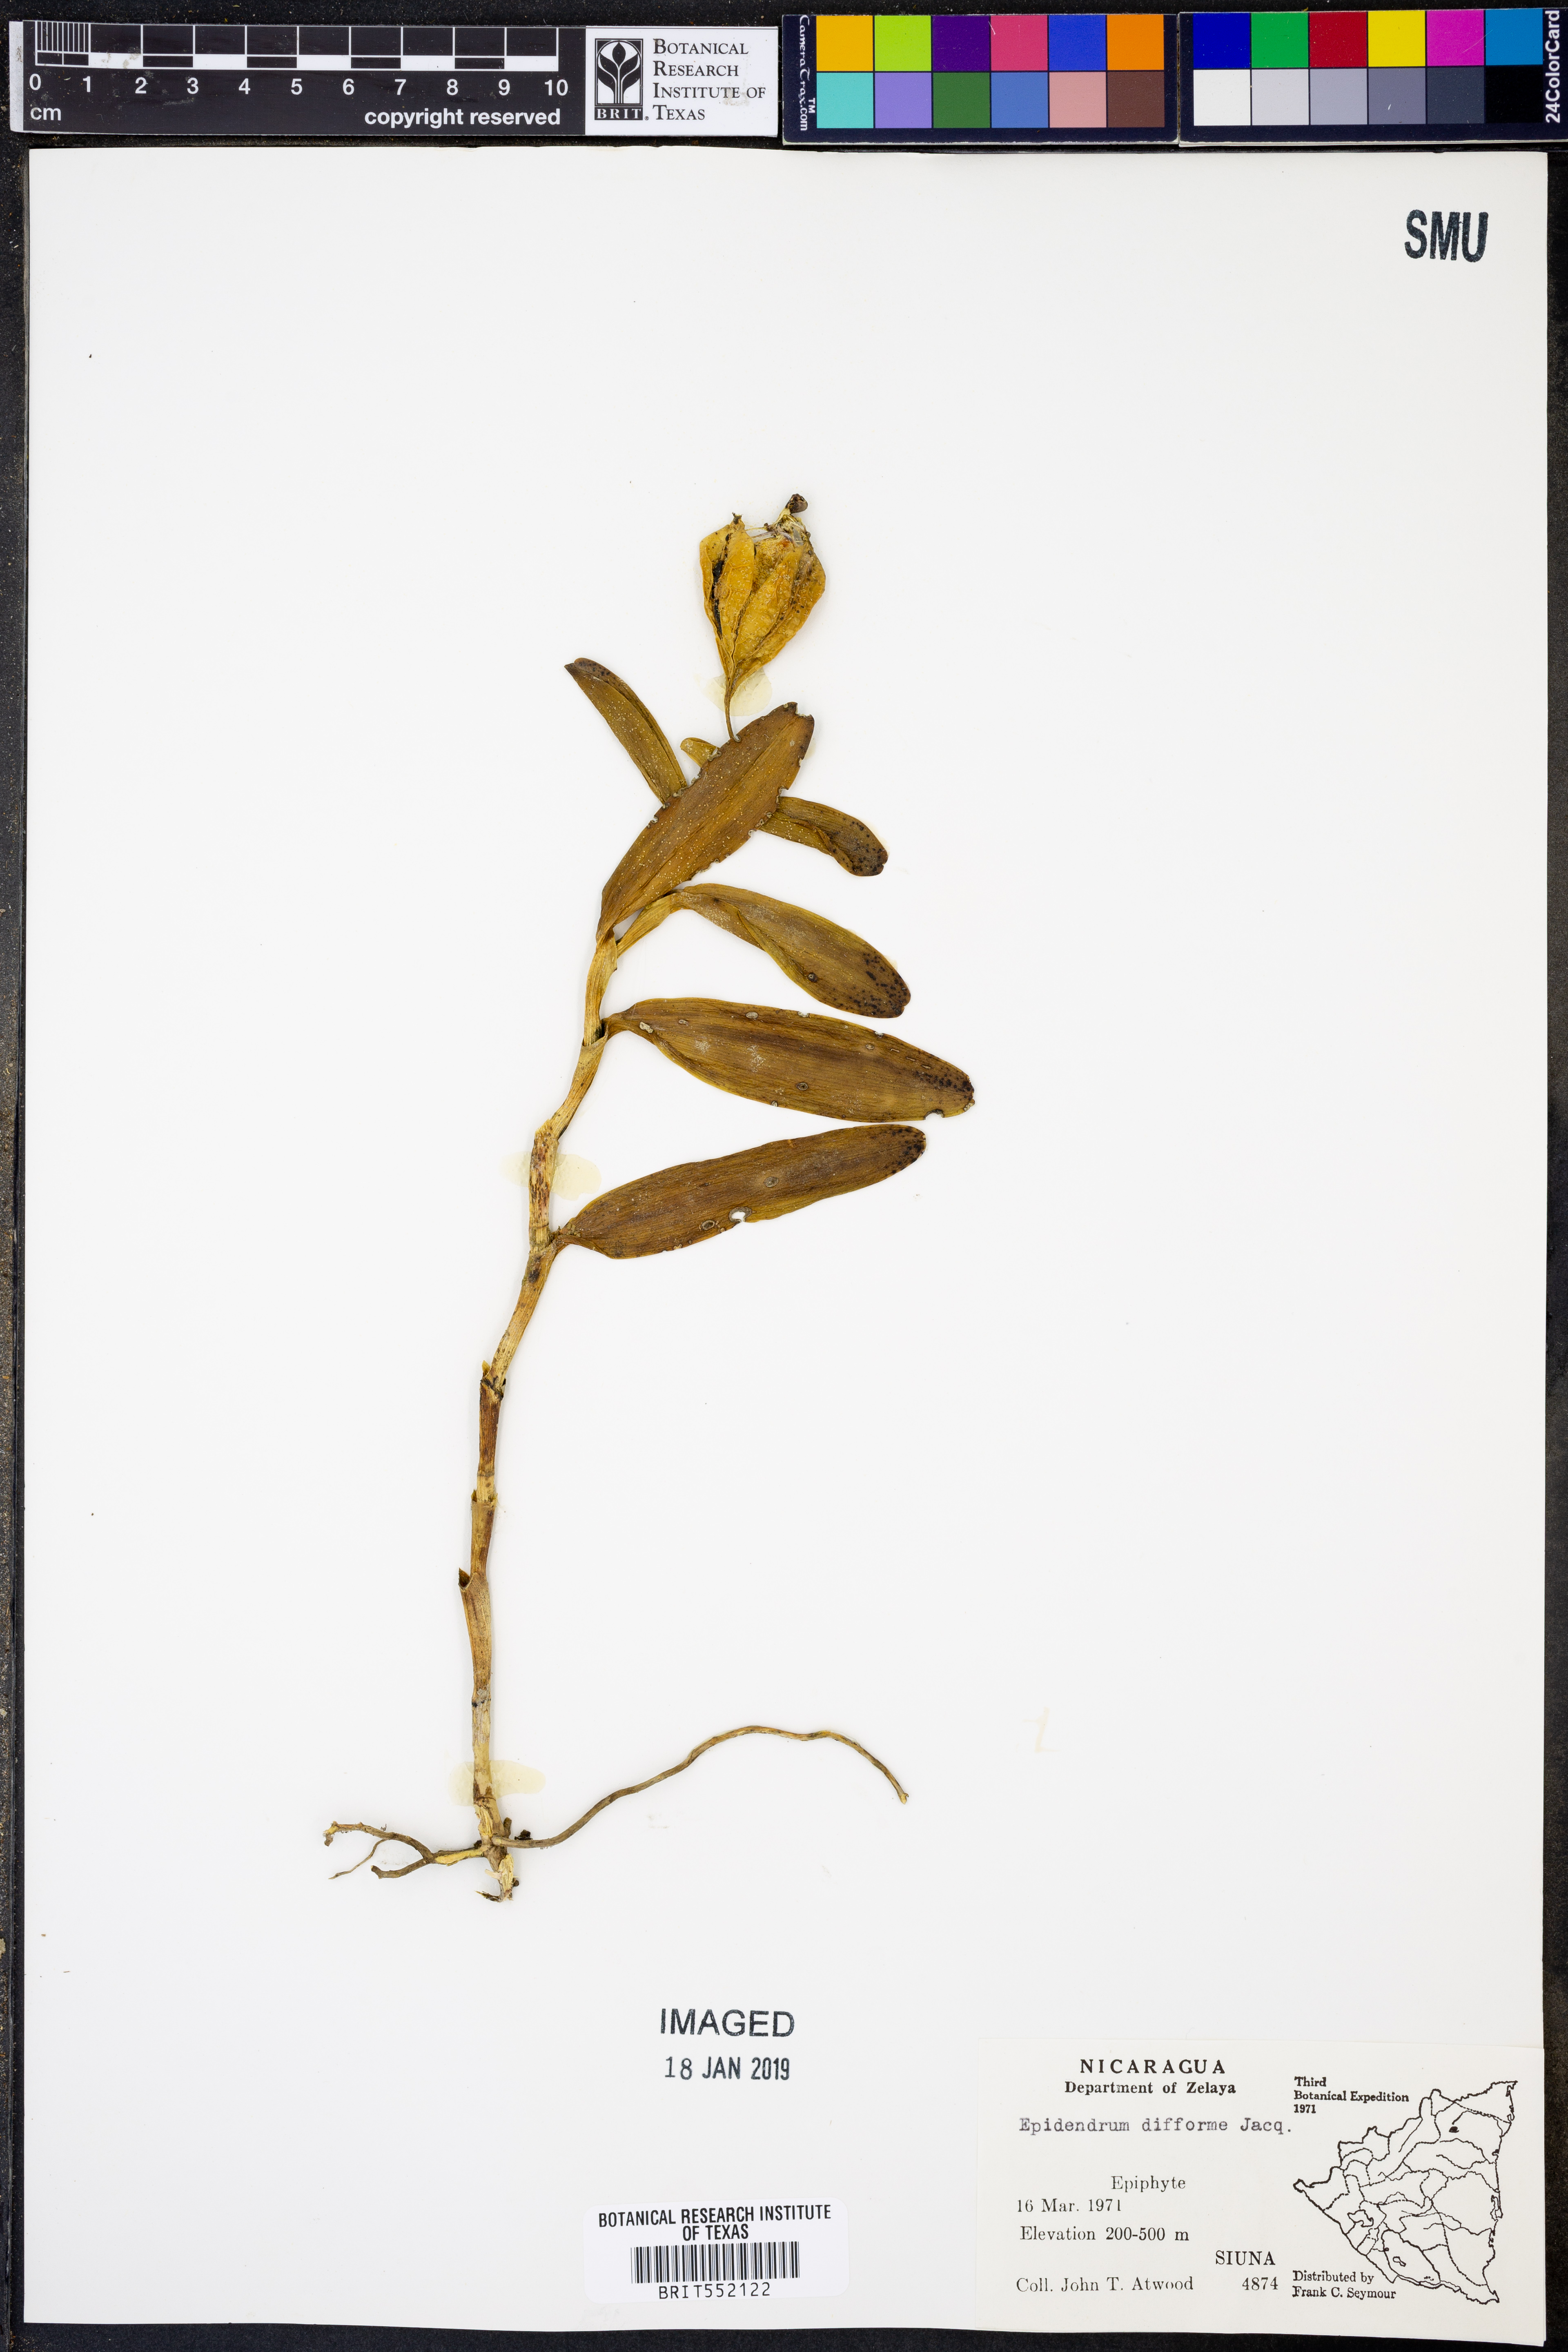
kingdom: Plantae
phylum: Tracheophyta
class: Liliopsida
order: Asparagales
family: Orchidaceae
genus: Epidendrum
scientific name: Epidendrum difforme
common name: Umbrella epidendrum
